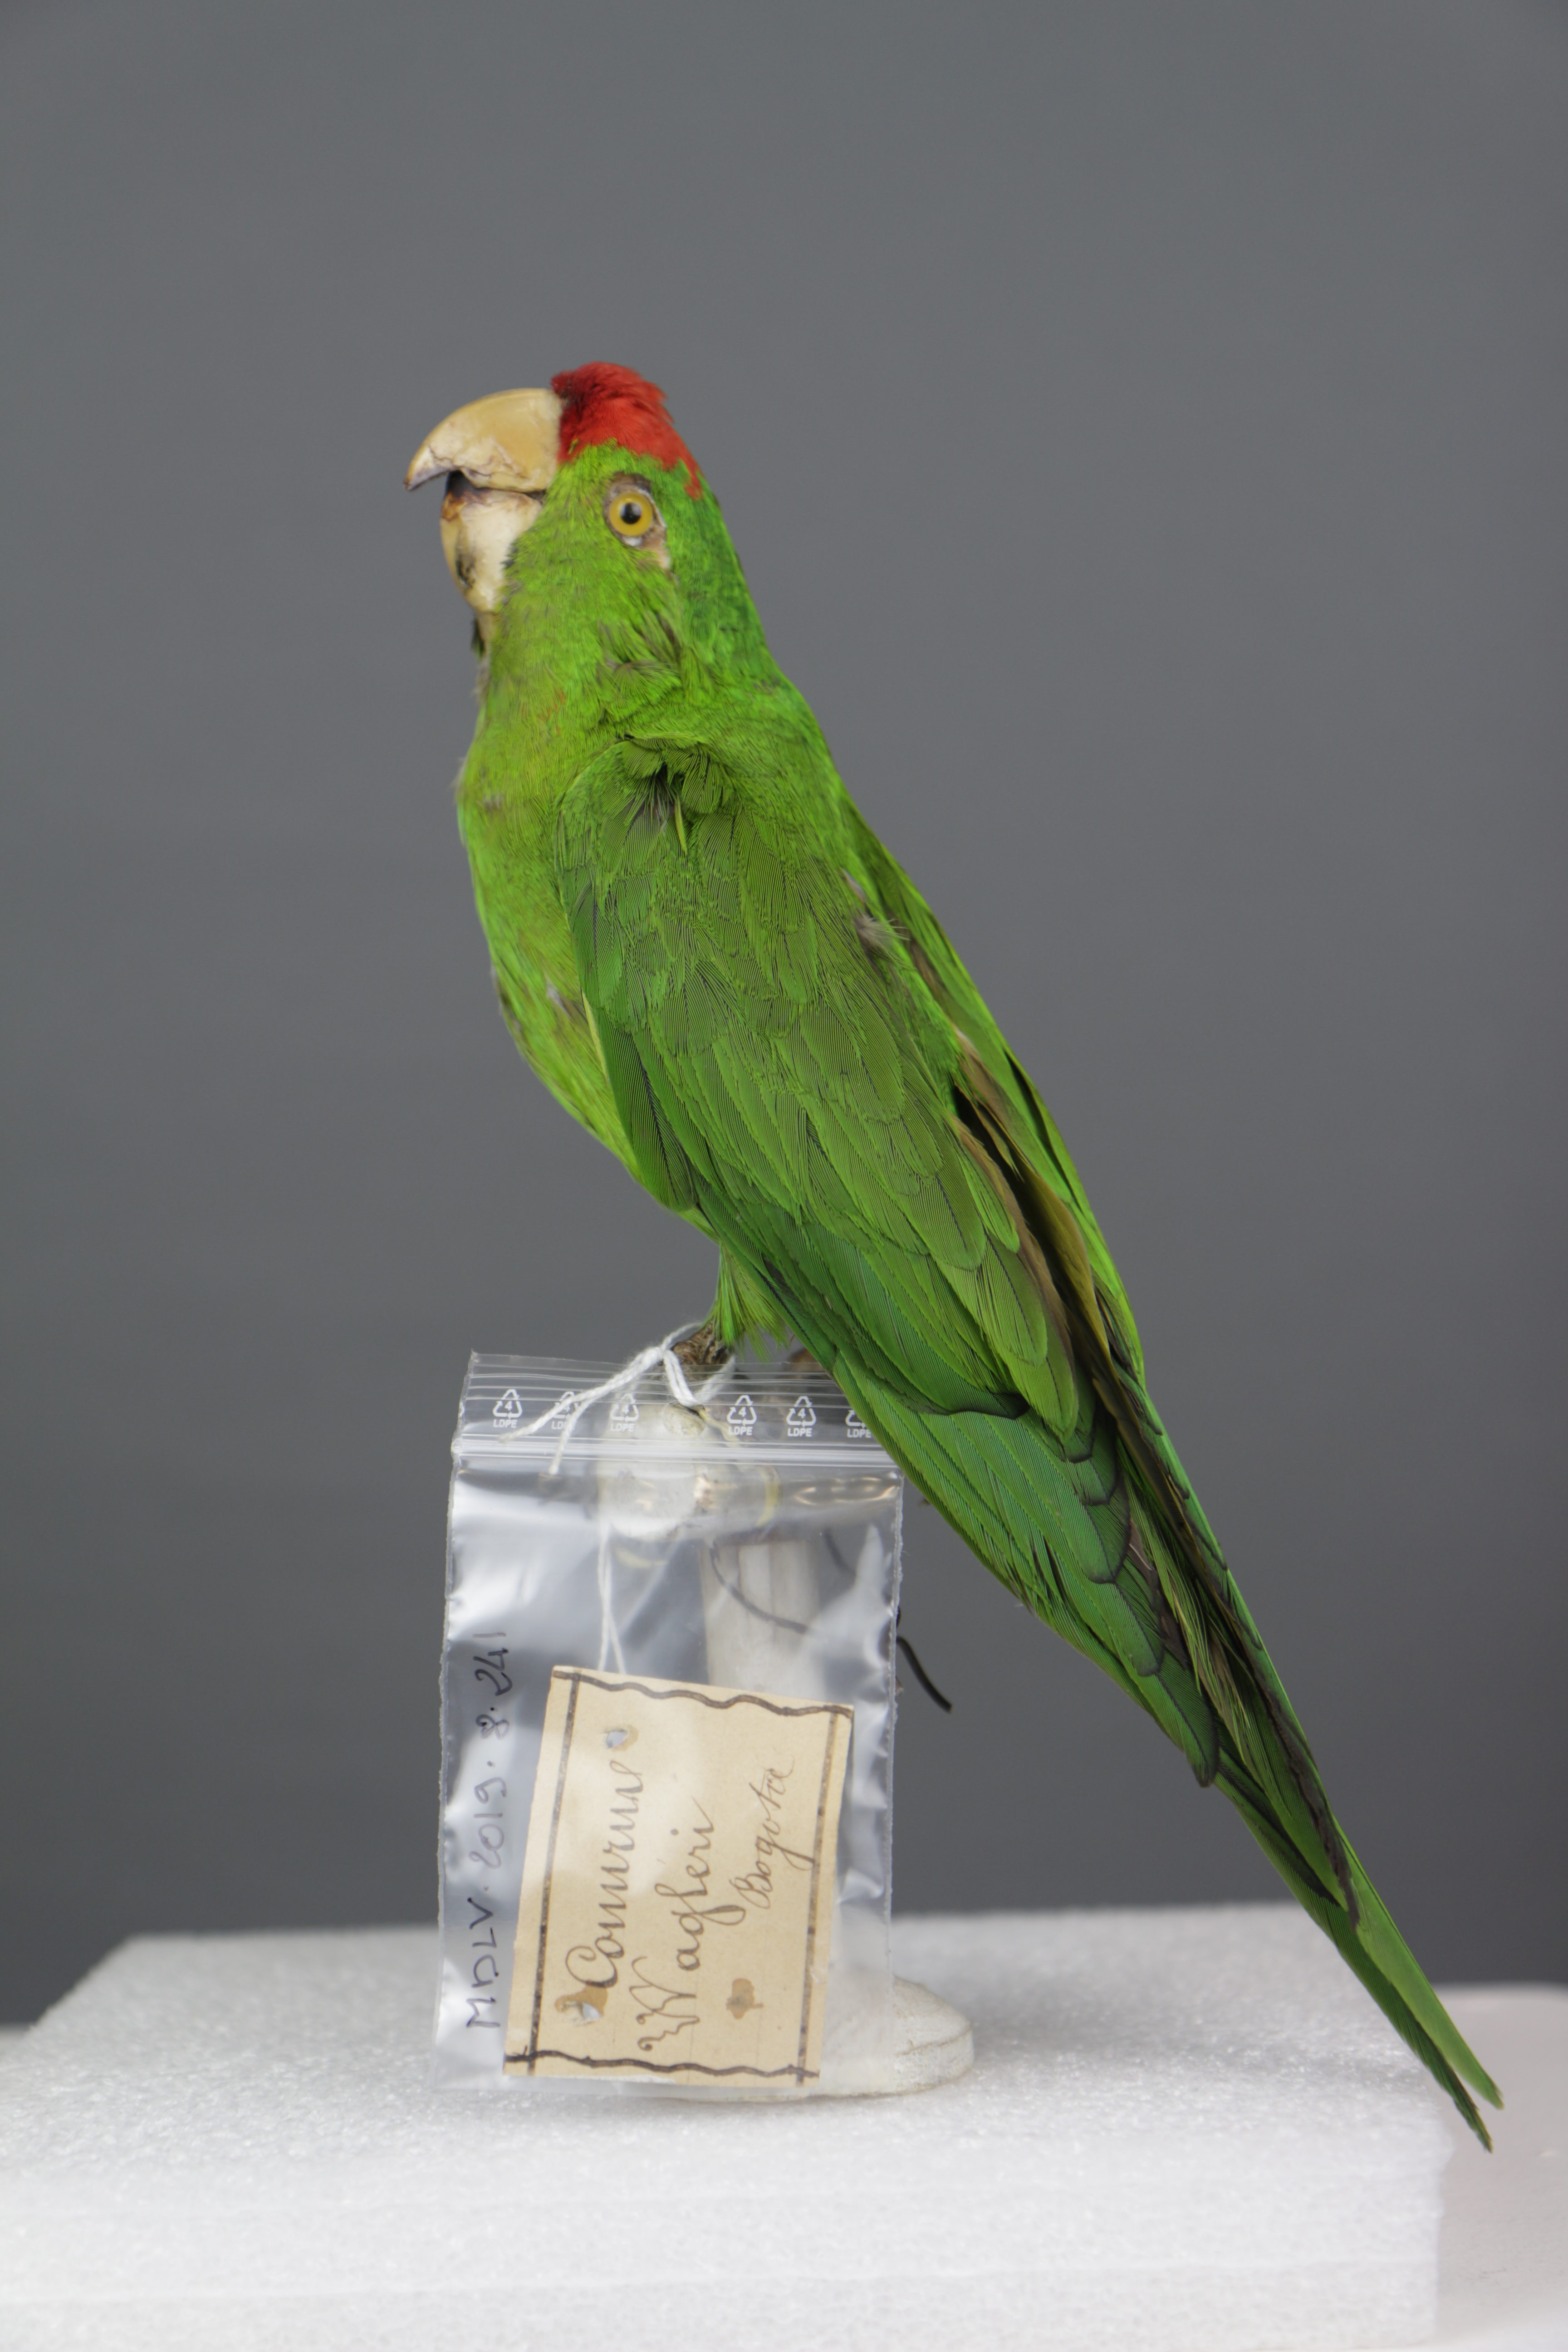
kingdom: Animalia
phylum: Chordata
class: Aves
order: Psittaciformes
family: Psittacidae
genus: Aratinga
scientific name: Aratinga wagleri
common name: Scarlet-fronted parakeet
